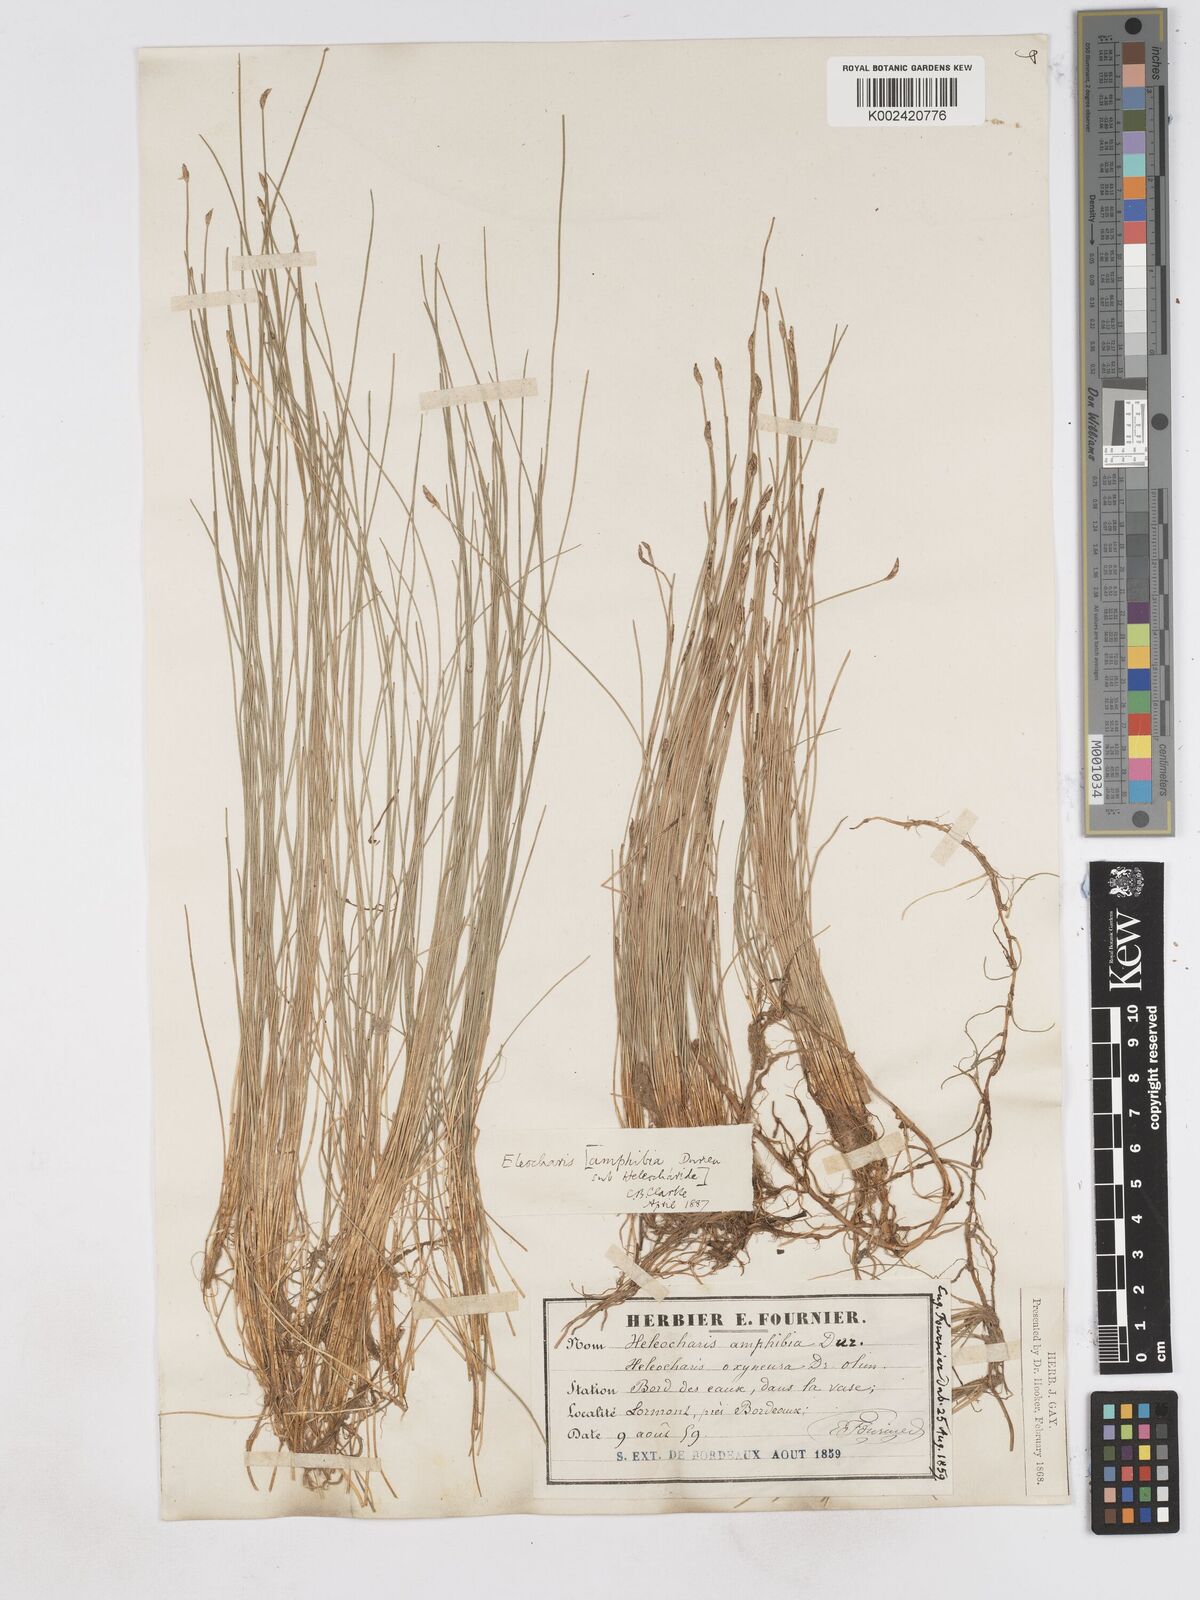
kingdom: Plantae
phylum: Tracheophyta
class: Liliopsida
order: Poales
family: Cyperaceae
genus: Eleocharis
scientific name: Eleocharis bonariensis
